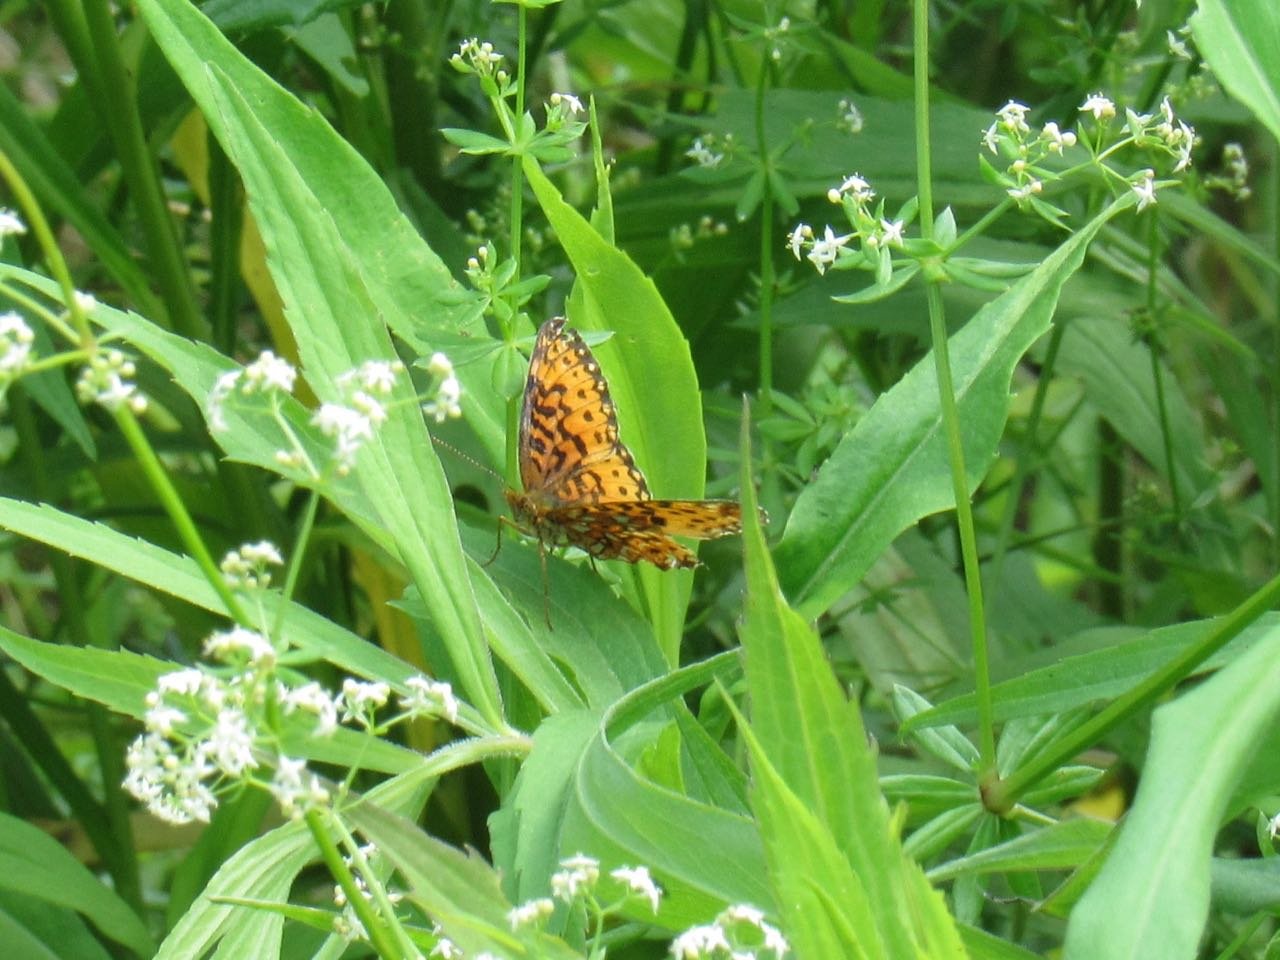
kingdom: Animalia
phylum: Arthropoda
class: Insecta
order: Lepidoptera
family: Nymphalidae
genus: Boloria
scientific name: Boloria selene
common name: Silver-bordered Fritillary
